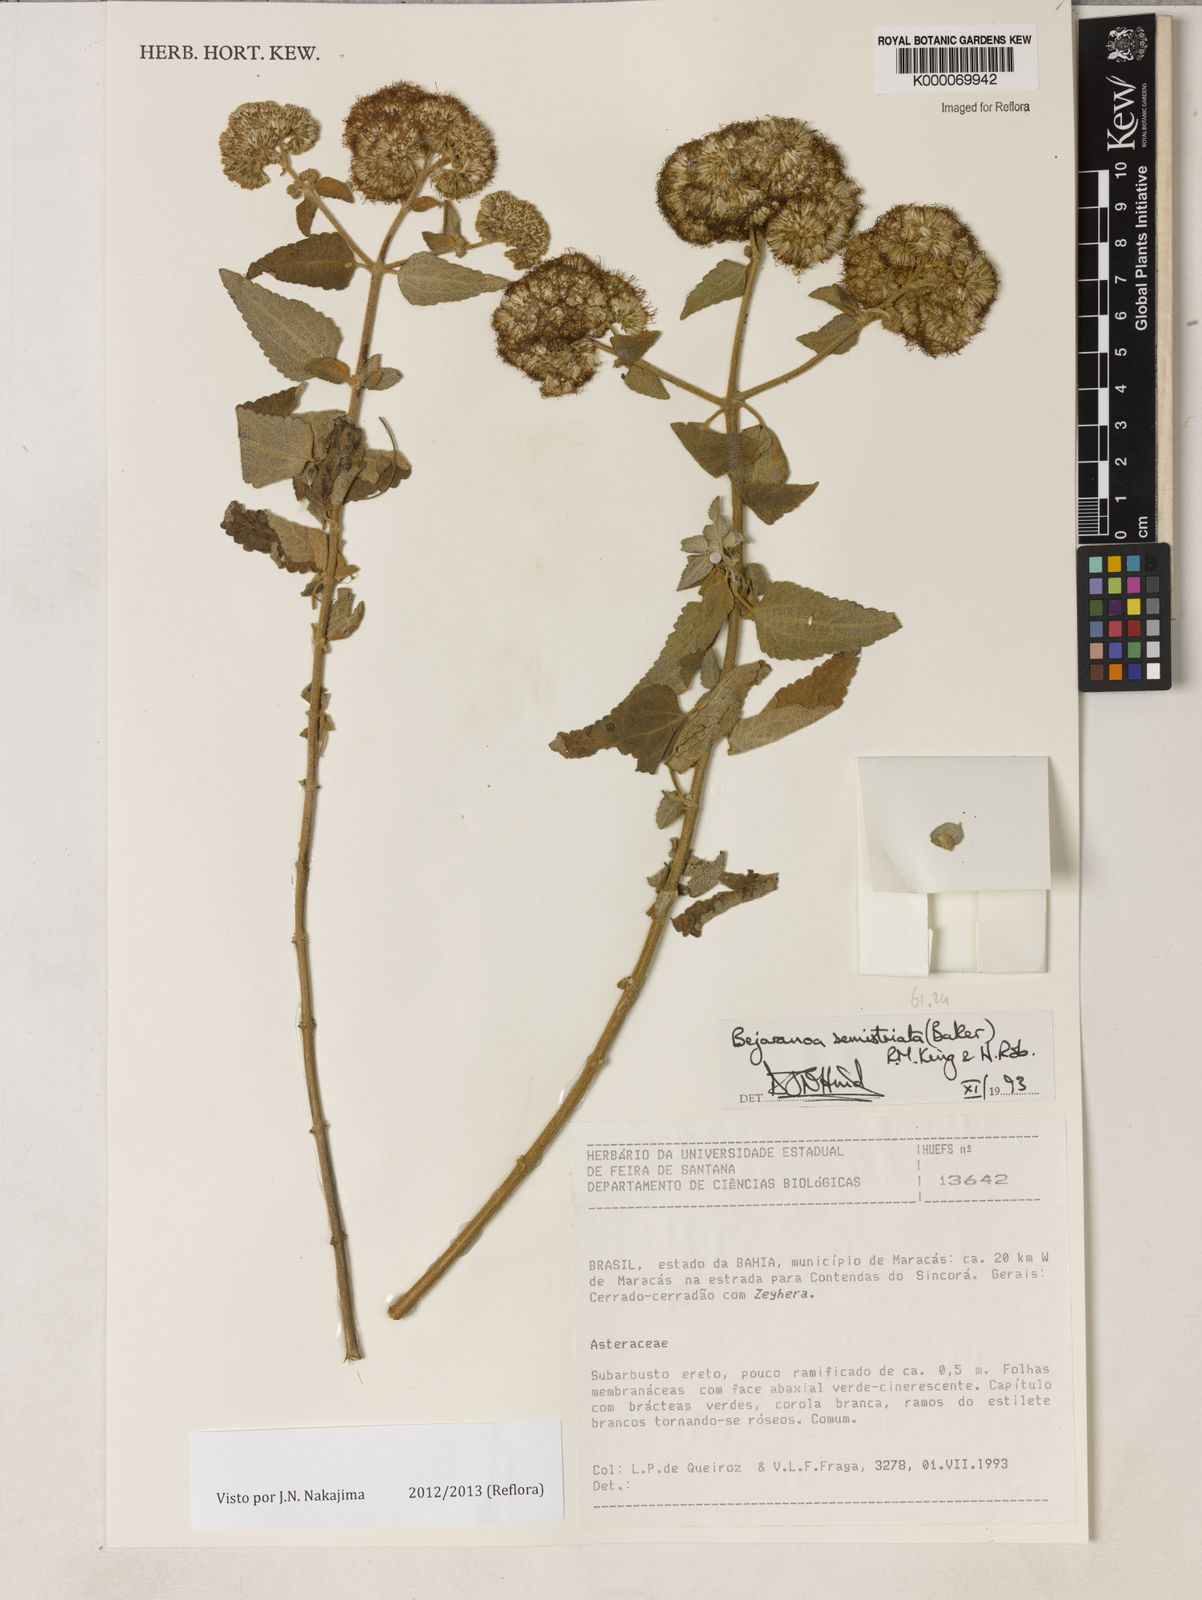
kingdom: Plantae
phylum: Tracheophyta
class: Magnoliopsida
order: Asterales
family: Asteraceae
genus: Bejaranoa
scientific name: Bejaranoa semistriata
